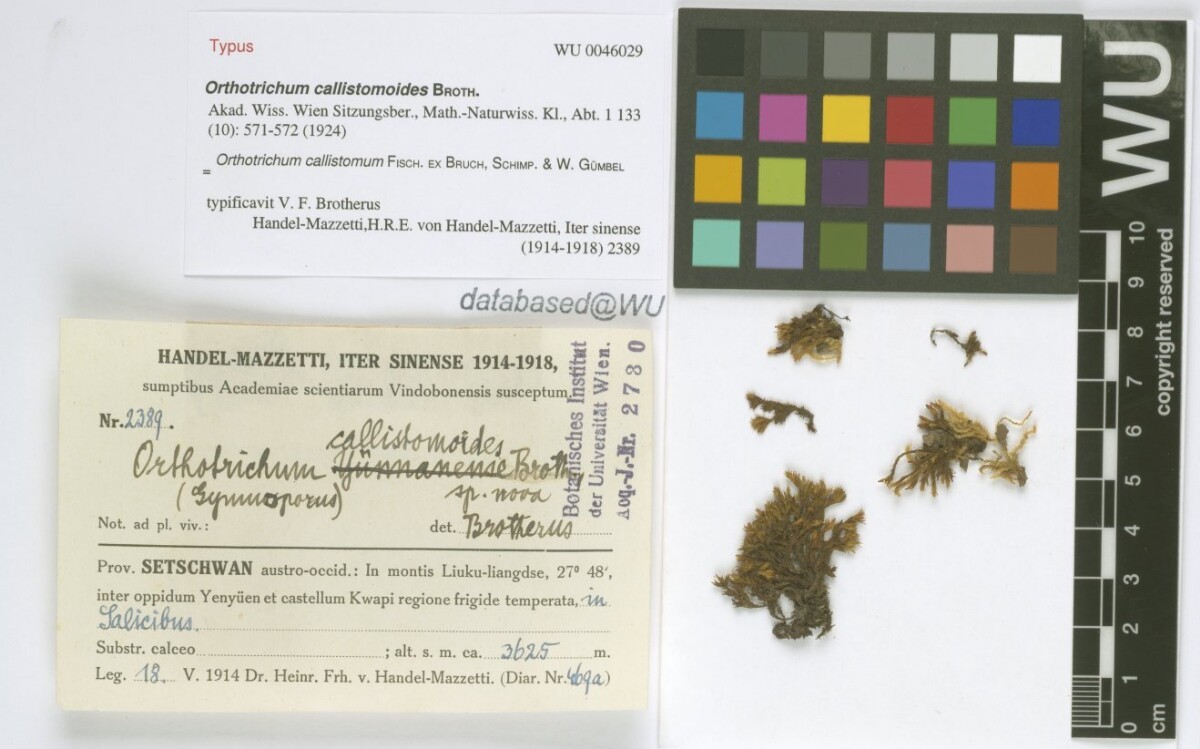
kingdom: Plantae
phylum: Bryophyta
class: Bryopsida
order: Orthotrichales
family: Orthotrichaceae
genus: Orthotrichum
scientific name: Orthotrichum callistomum
